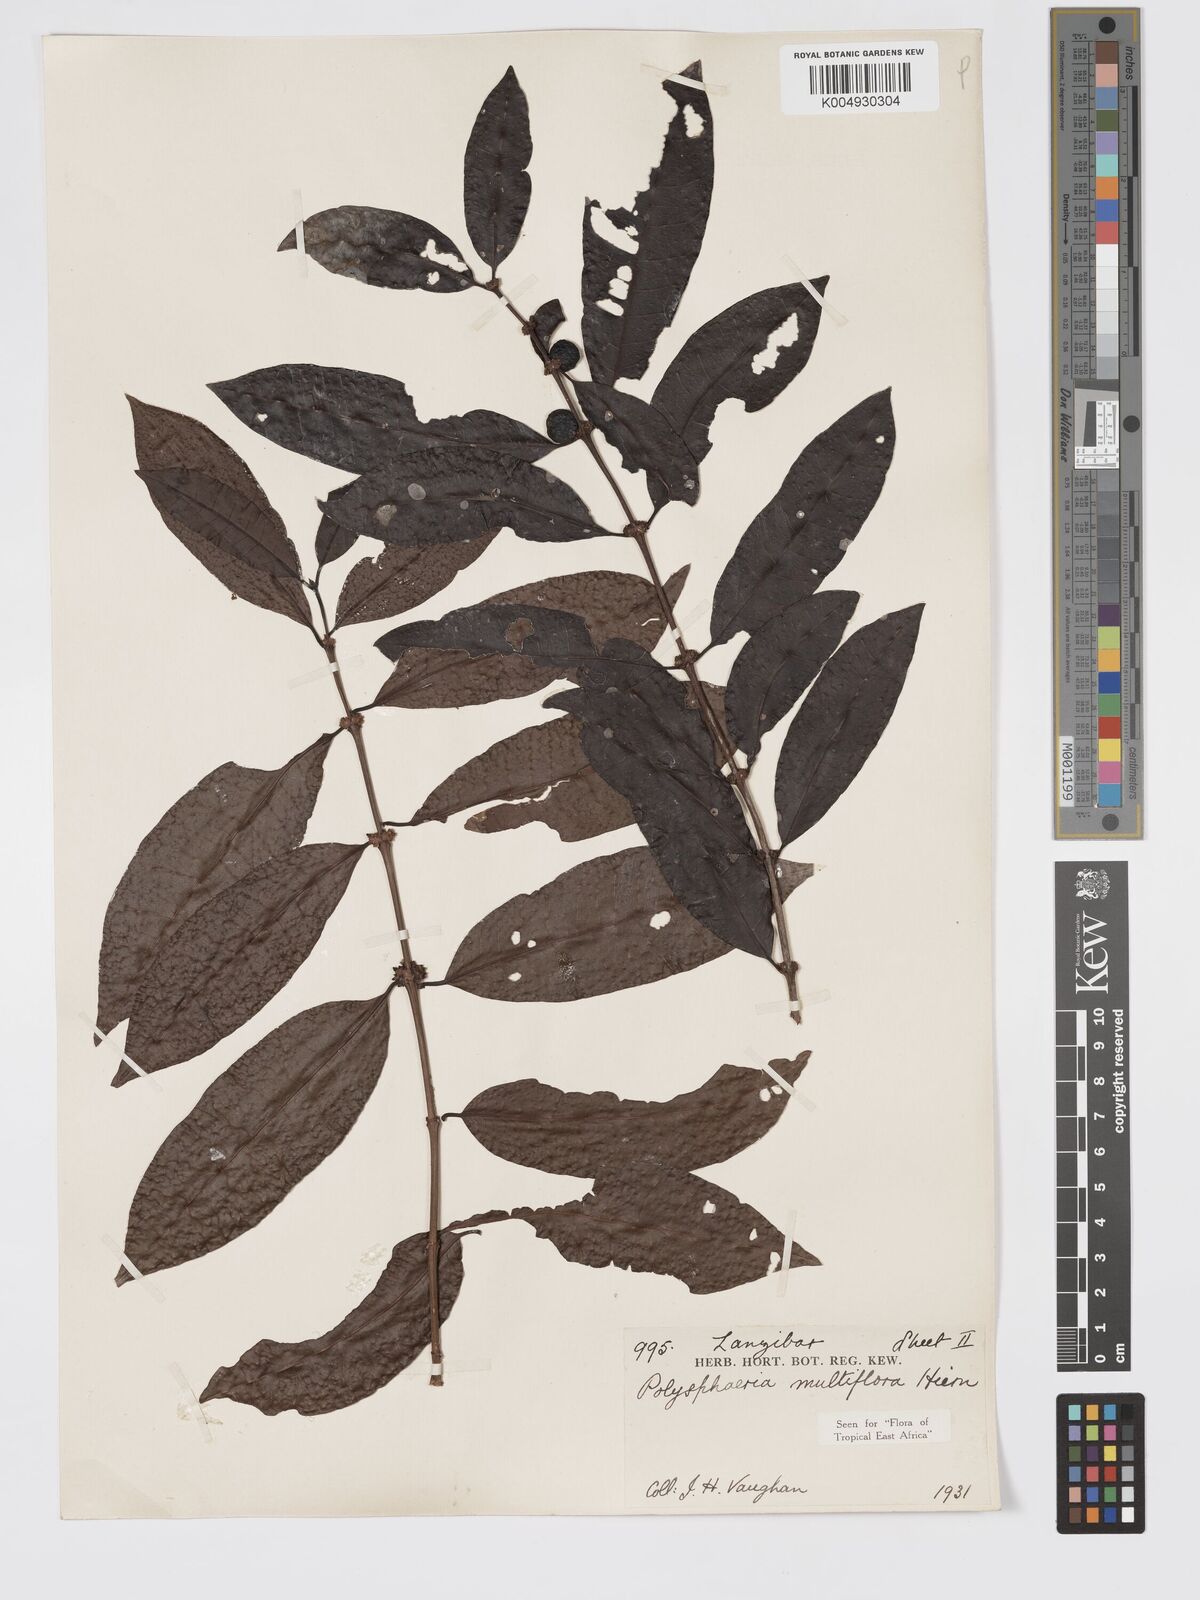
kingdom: Plantae
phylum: Tracheophyta
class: Magnoliopsida
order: Gentianales
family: Rubiaceae
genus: Polysphaeria
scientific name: Polysphaeria multiflora
